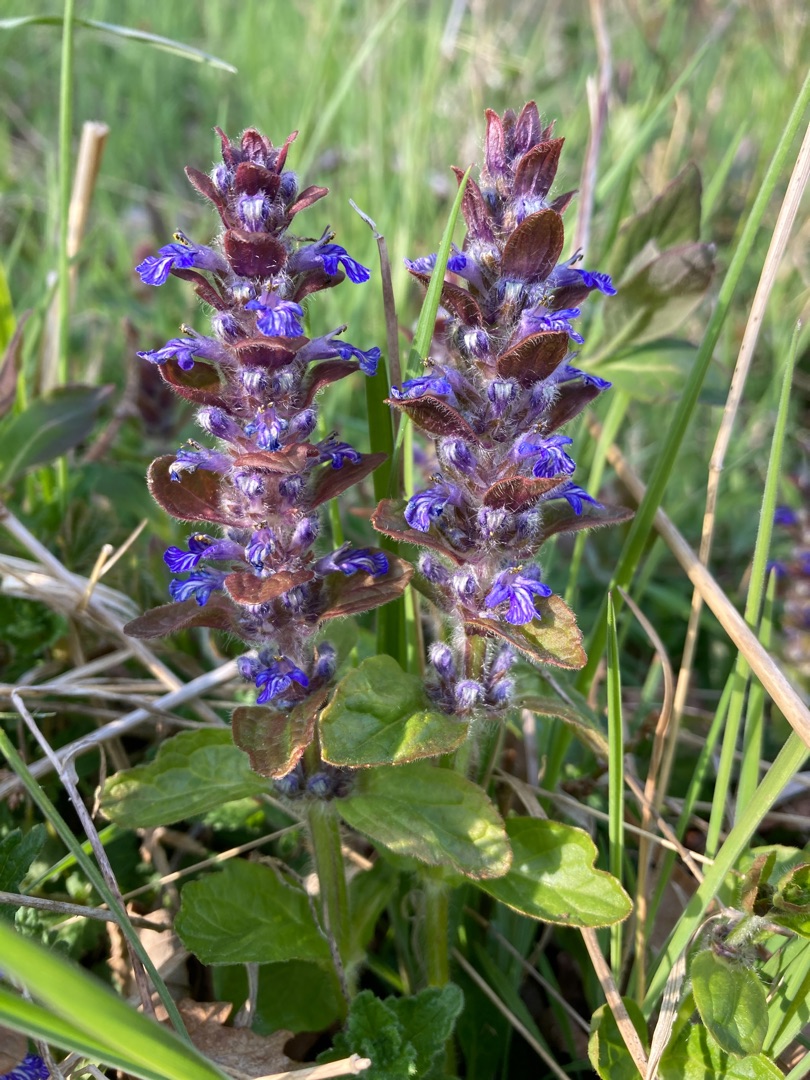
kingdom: Plantae
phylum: Tracheophyta
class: Magnoliopsida
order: Lamiales
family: Lamiaceae
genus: Ajuga
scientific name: Ajuga reptans
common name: Krybende læbeløs
